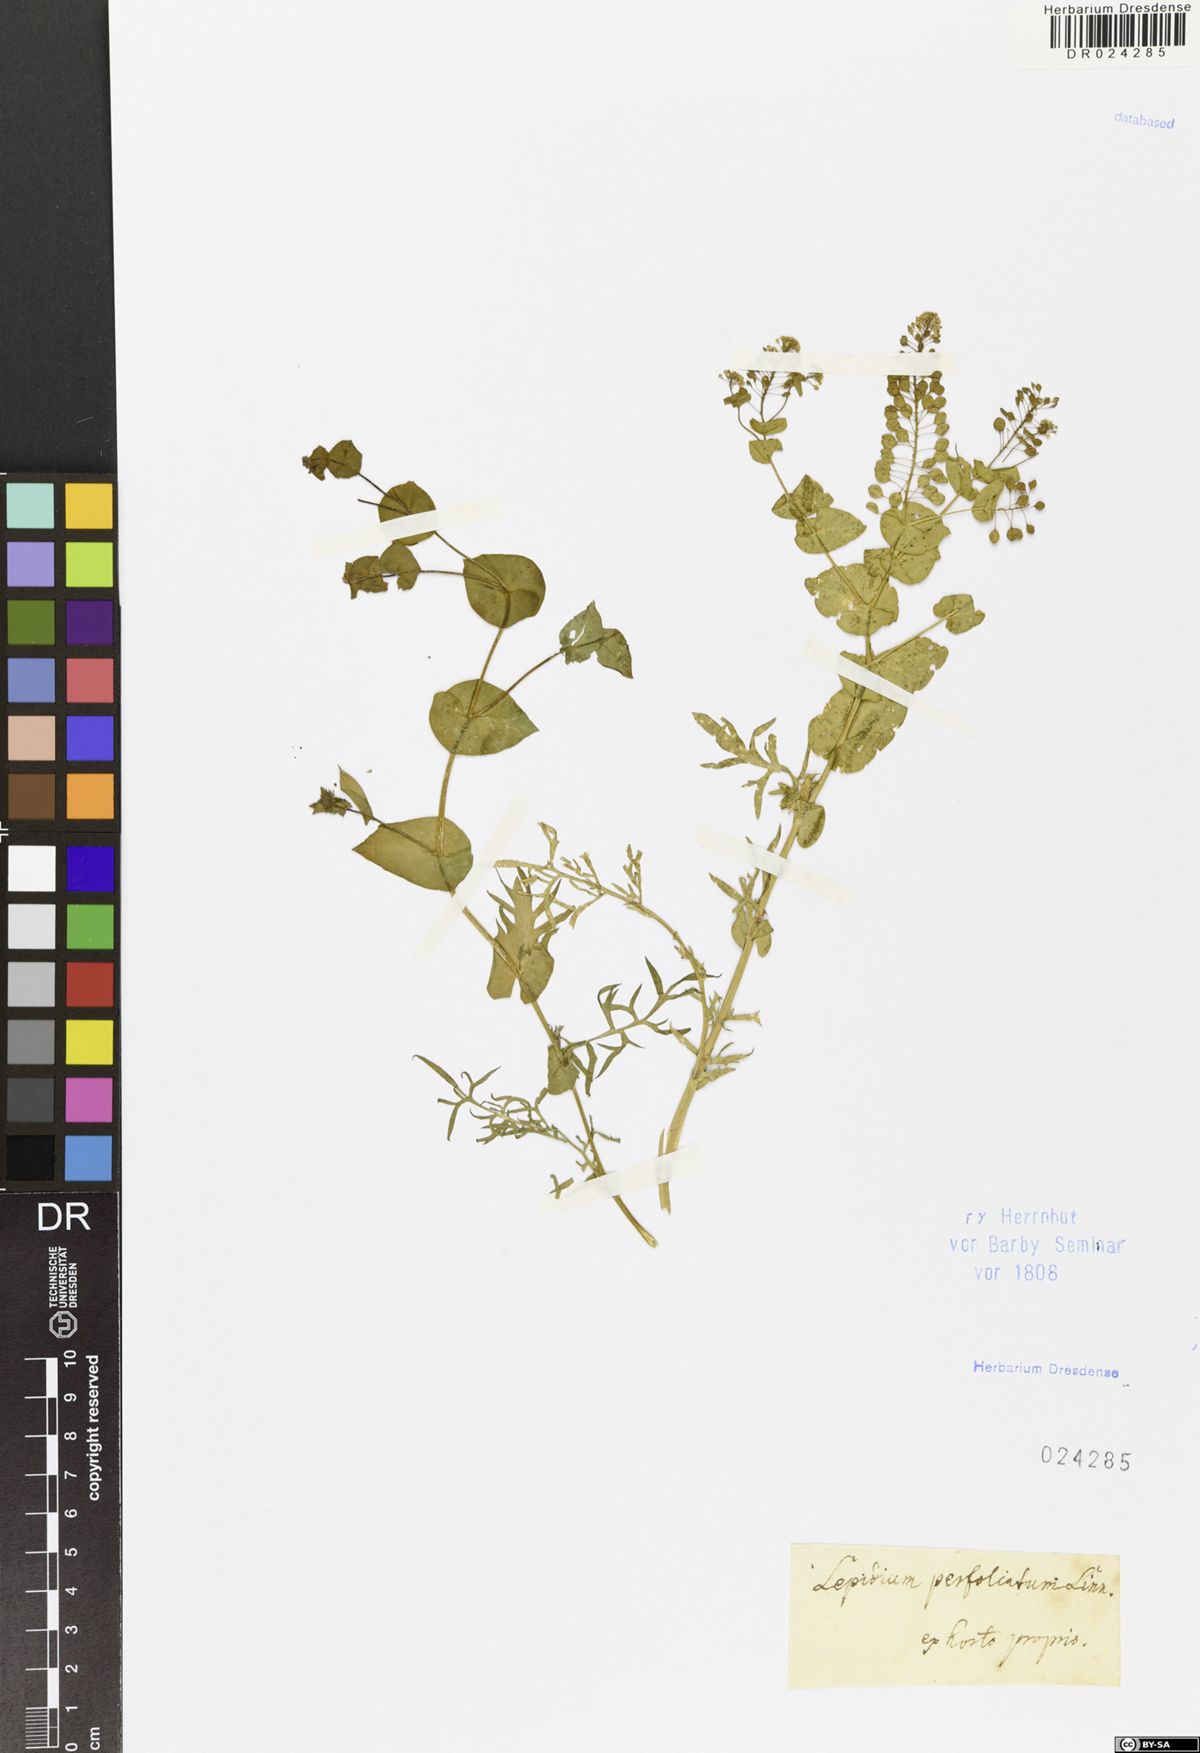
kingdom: Plantae
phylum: Tracheophyta
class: Magnoliopsida
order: Brassicales
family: Brassicaceae
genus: Lepidium
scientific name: Lepidium perfoliatum
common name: Perfoliate pepperwort
